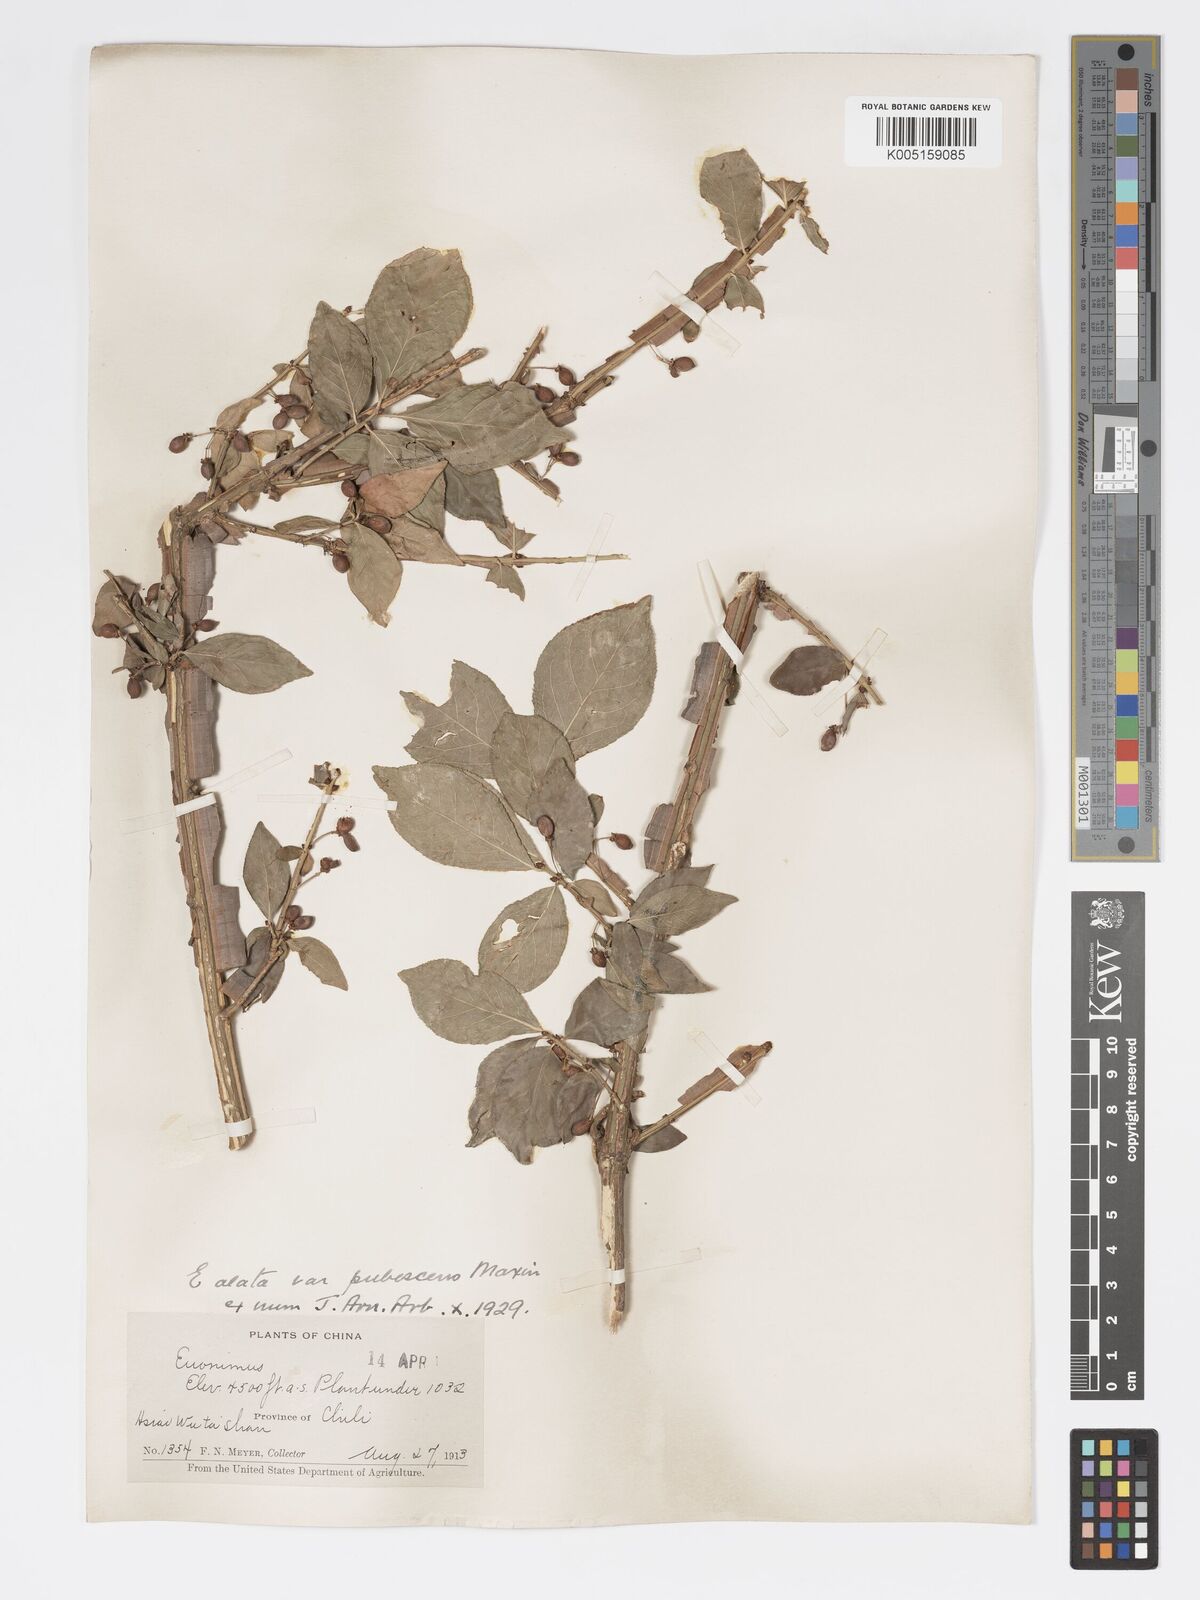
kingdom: Plantae
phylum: Tracheophyta
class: Magnoliopsida
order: Celastrales
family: Celastraceae
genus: Euonymus
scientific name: Euonymus
